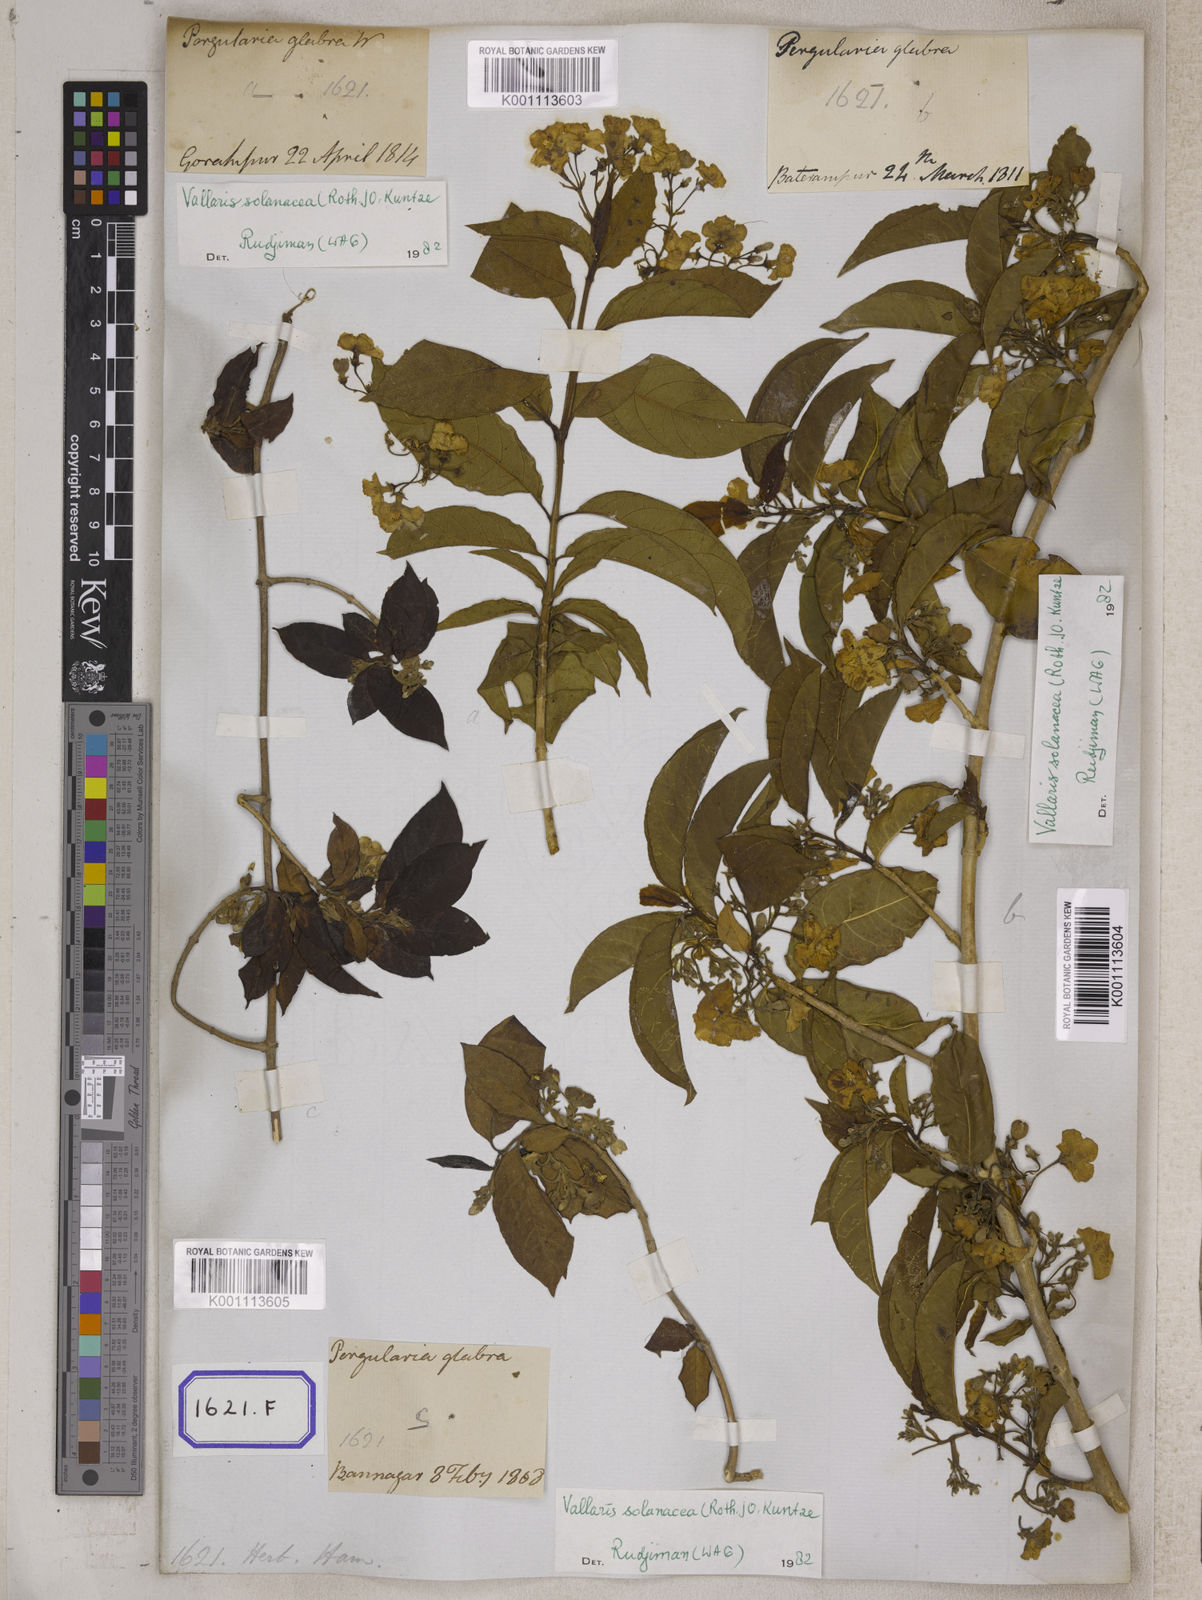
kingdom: Plantae
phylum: Tracheophyta
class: Magnoliopsida
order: Gentianales
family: Apocynaceae
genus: Vallaris
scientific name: Vallaris glabra
